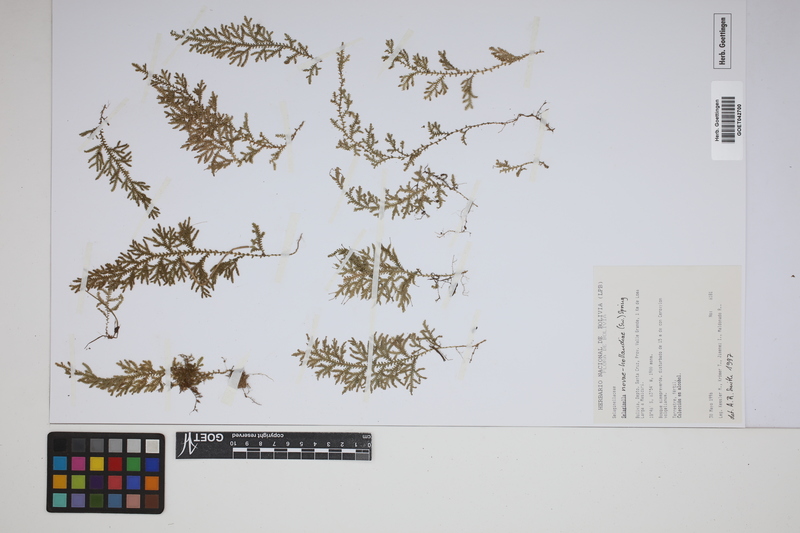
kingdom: Plantae
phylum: Tracheophyta
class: Lycopodiopsida
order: Selaginellales
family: Selaginellaceae
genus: Selaginella
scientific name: Selaginella novae-hollandiae
